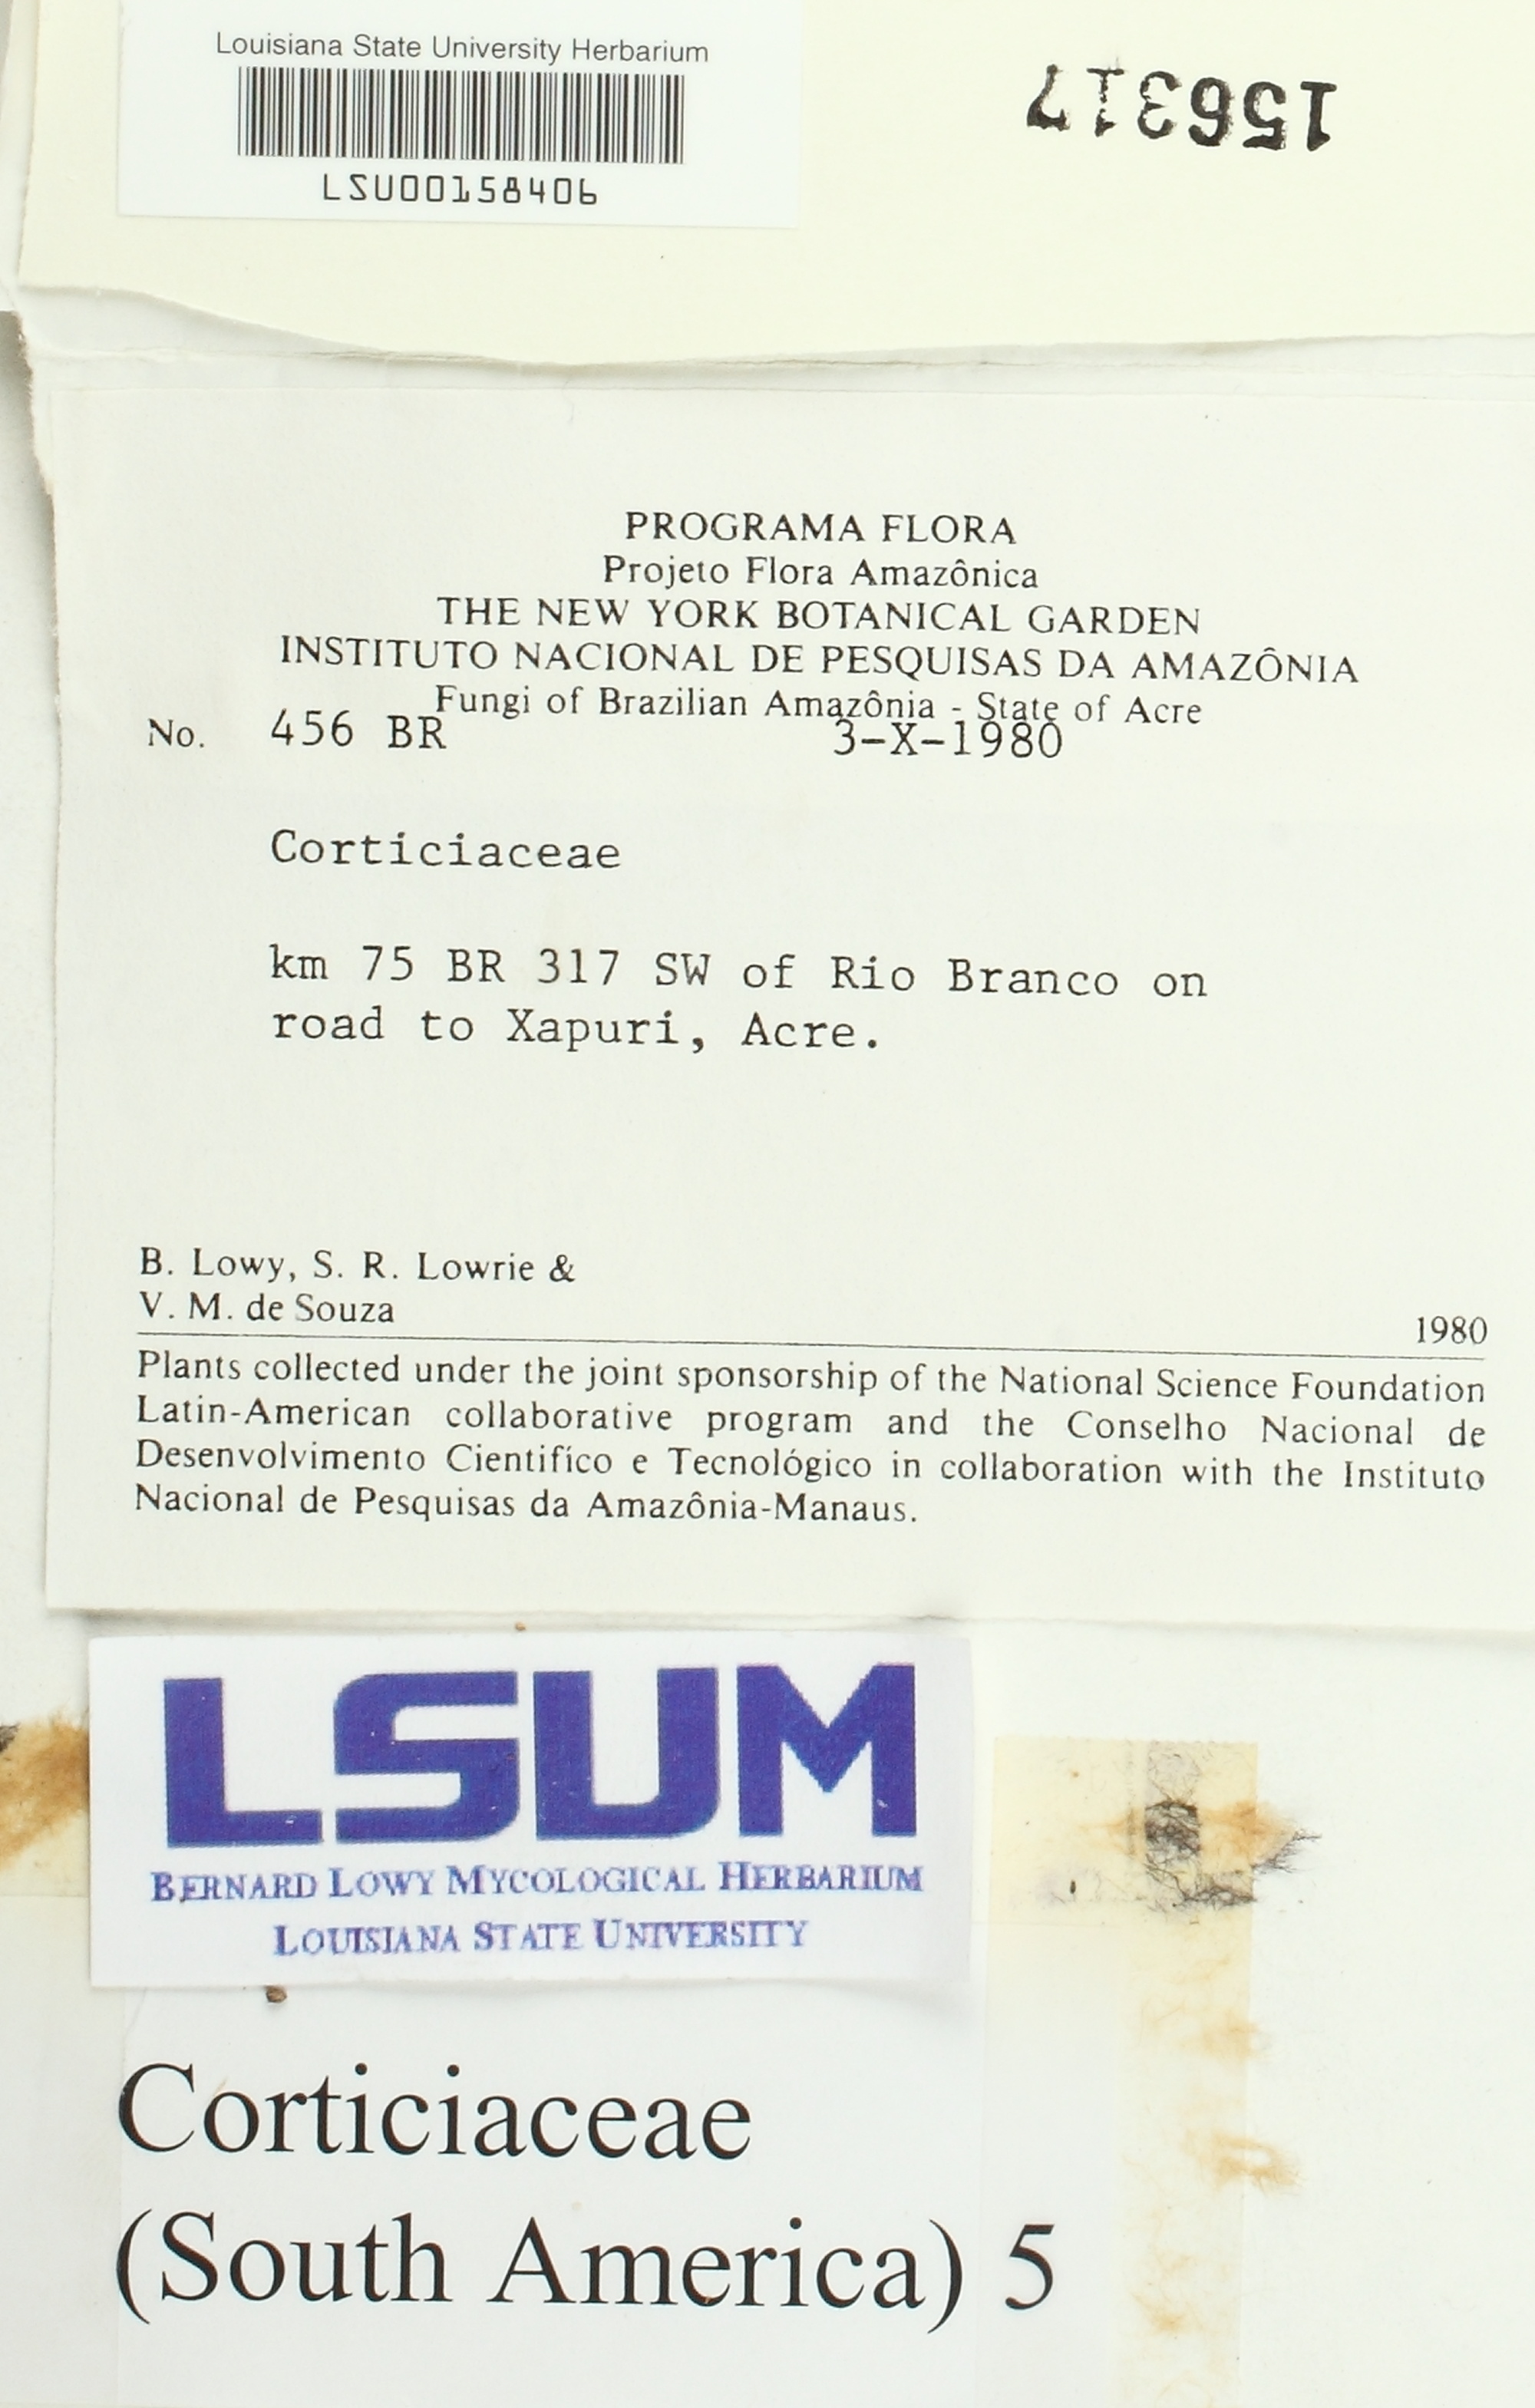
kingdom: Fungi
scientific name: Fungi
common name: Fungi
